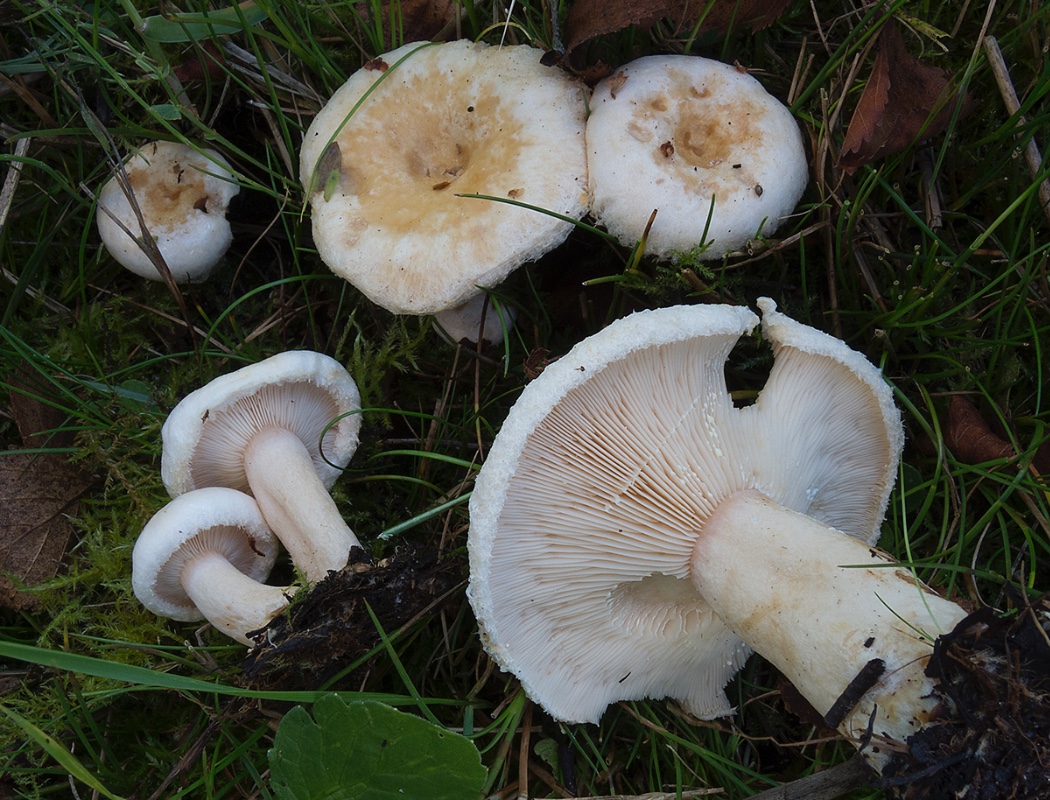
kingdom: Fungi
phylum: Basidiomycota
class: Agaricomycetes
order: Russulales
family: Russulaceae
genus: Lactarius
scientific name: Lactarius pubescens
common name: dunet mælkehat
